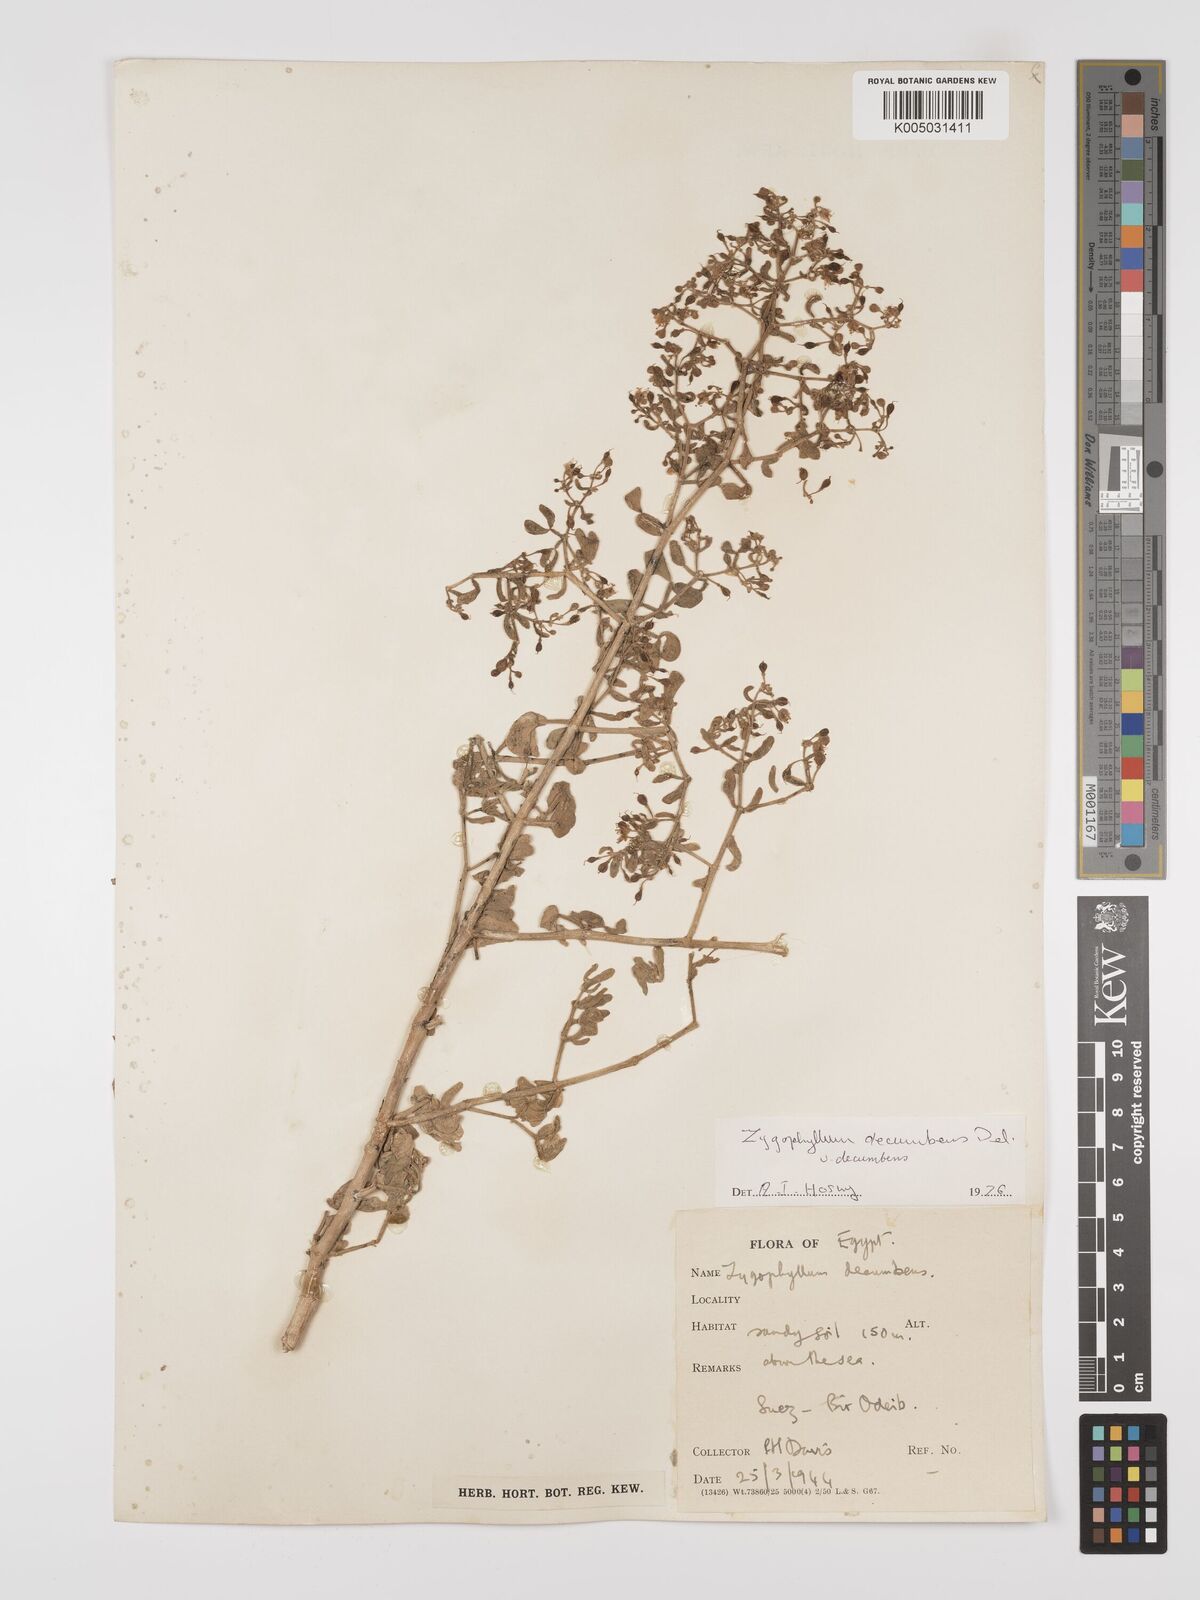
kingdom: Plantae
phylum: Tracheophyta
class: Magnoliopsida
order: Zygophyllales
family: Zygophyllaceae
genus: Tetraena
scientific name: Tetraena decumbens
